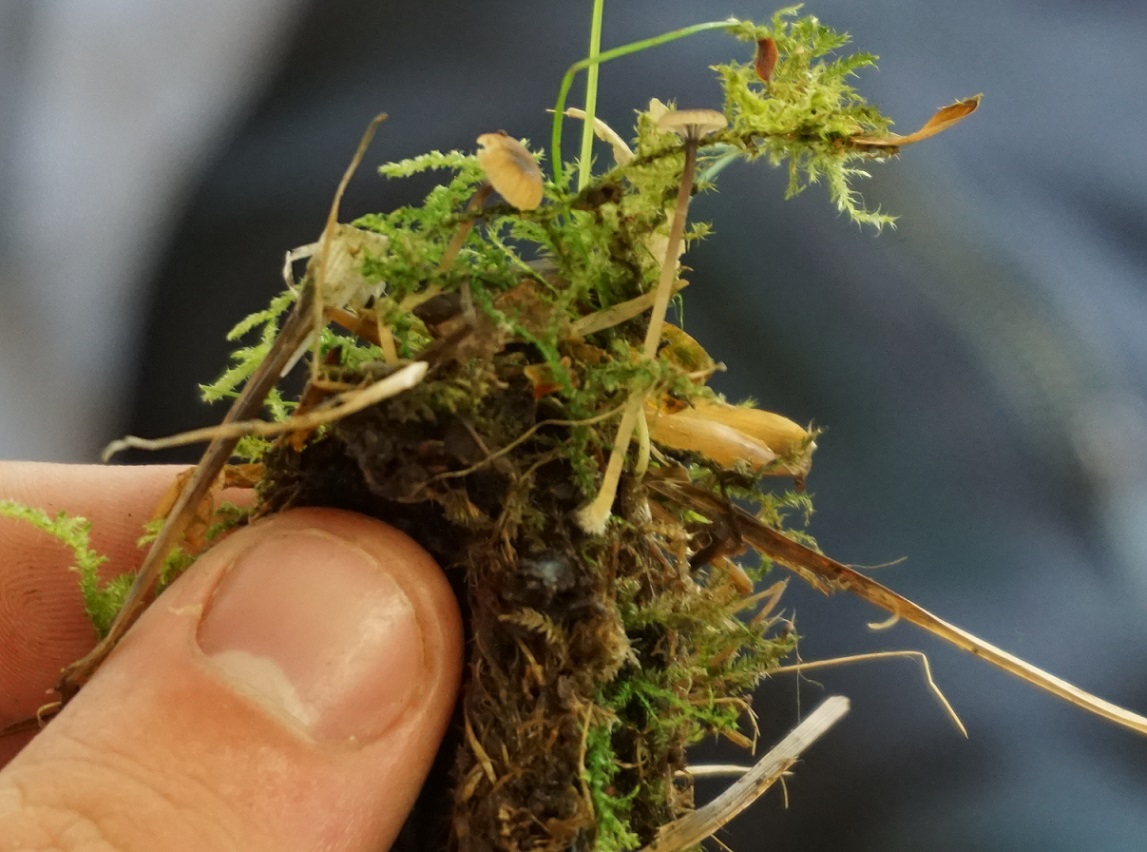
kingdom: Fungi
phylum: Basidiomycota
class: Agaricomycetes
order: Hymenochaetales
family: Rickenellaceae
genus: Rickenella
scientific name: Rickenella swartzii
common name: finstokket mosnavlehat
